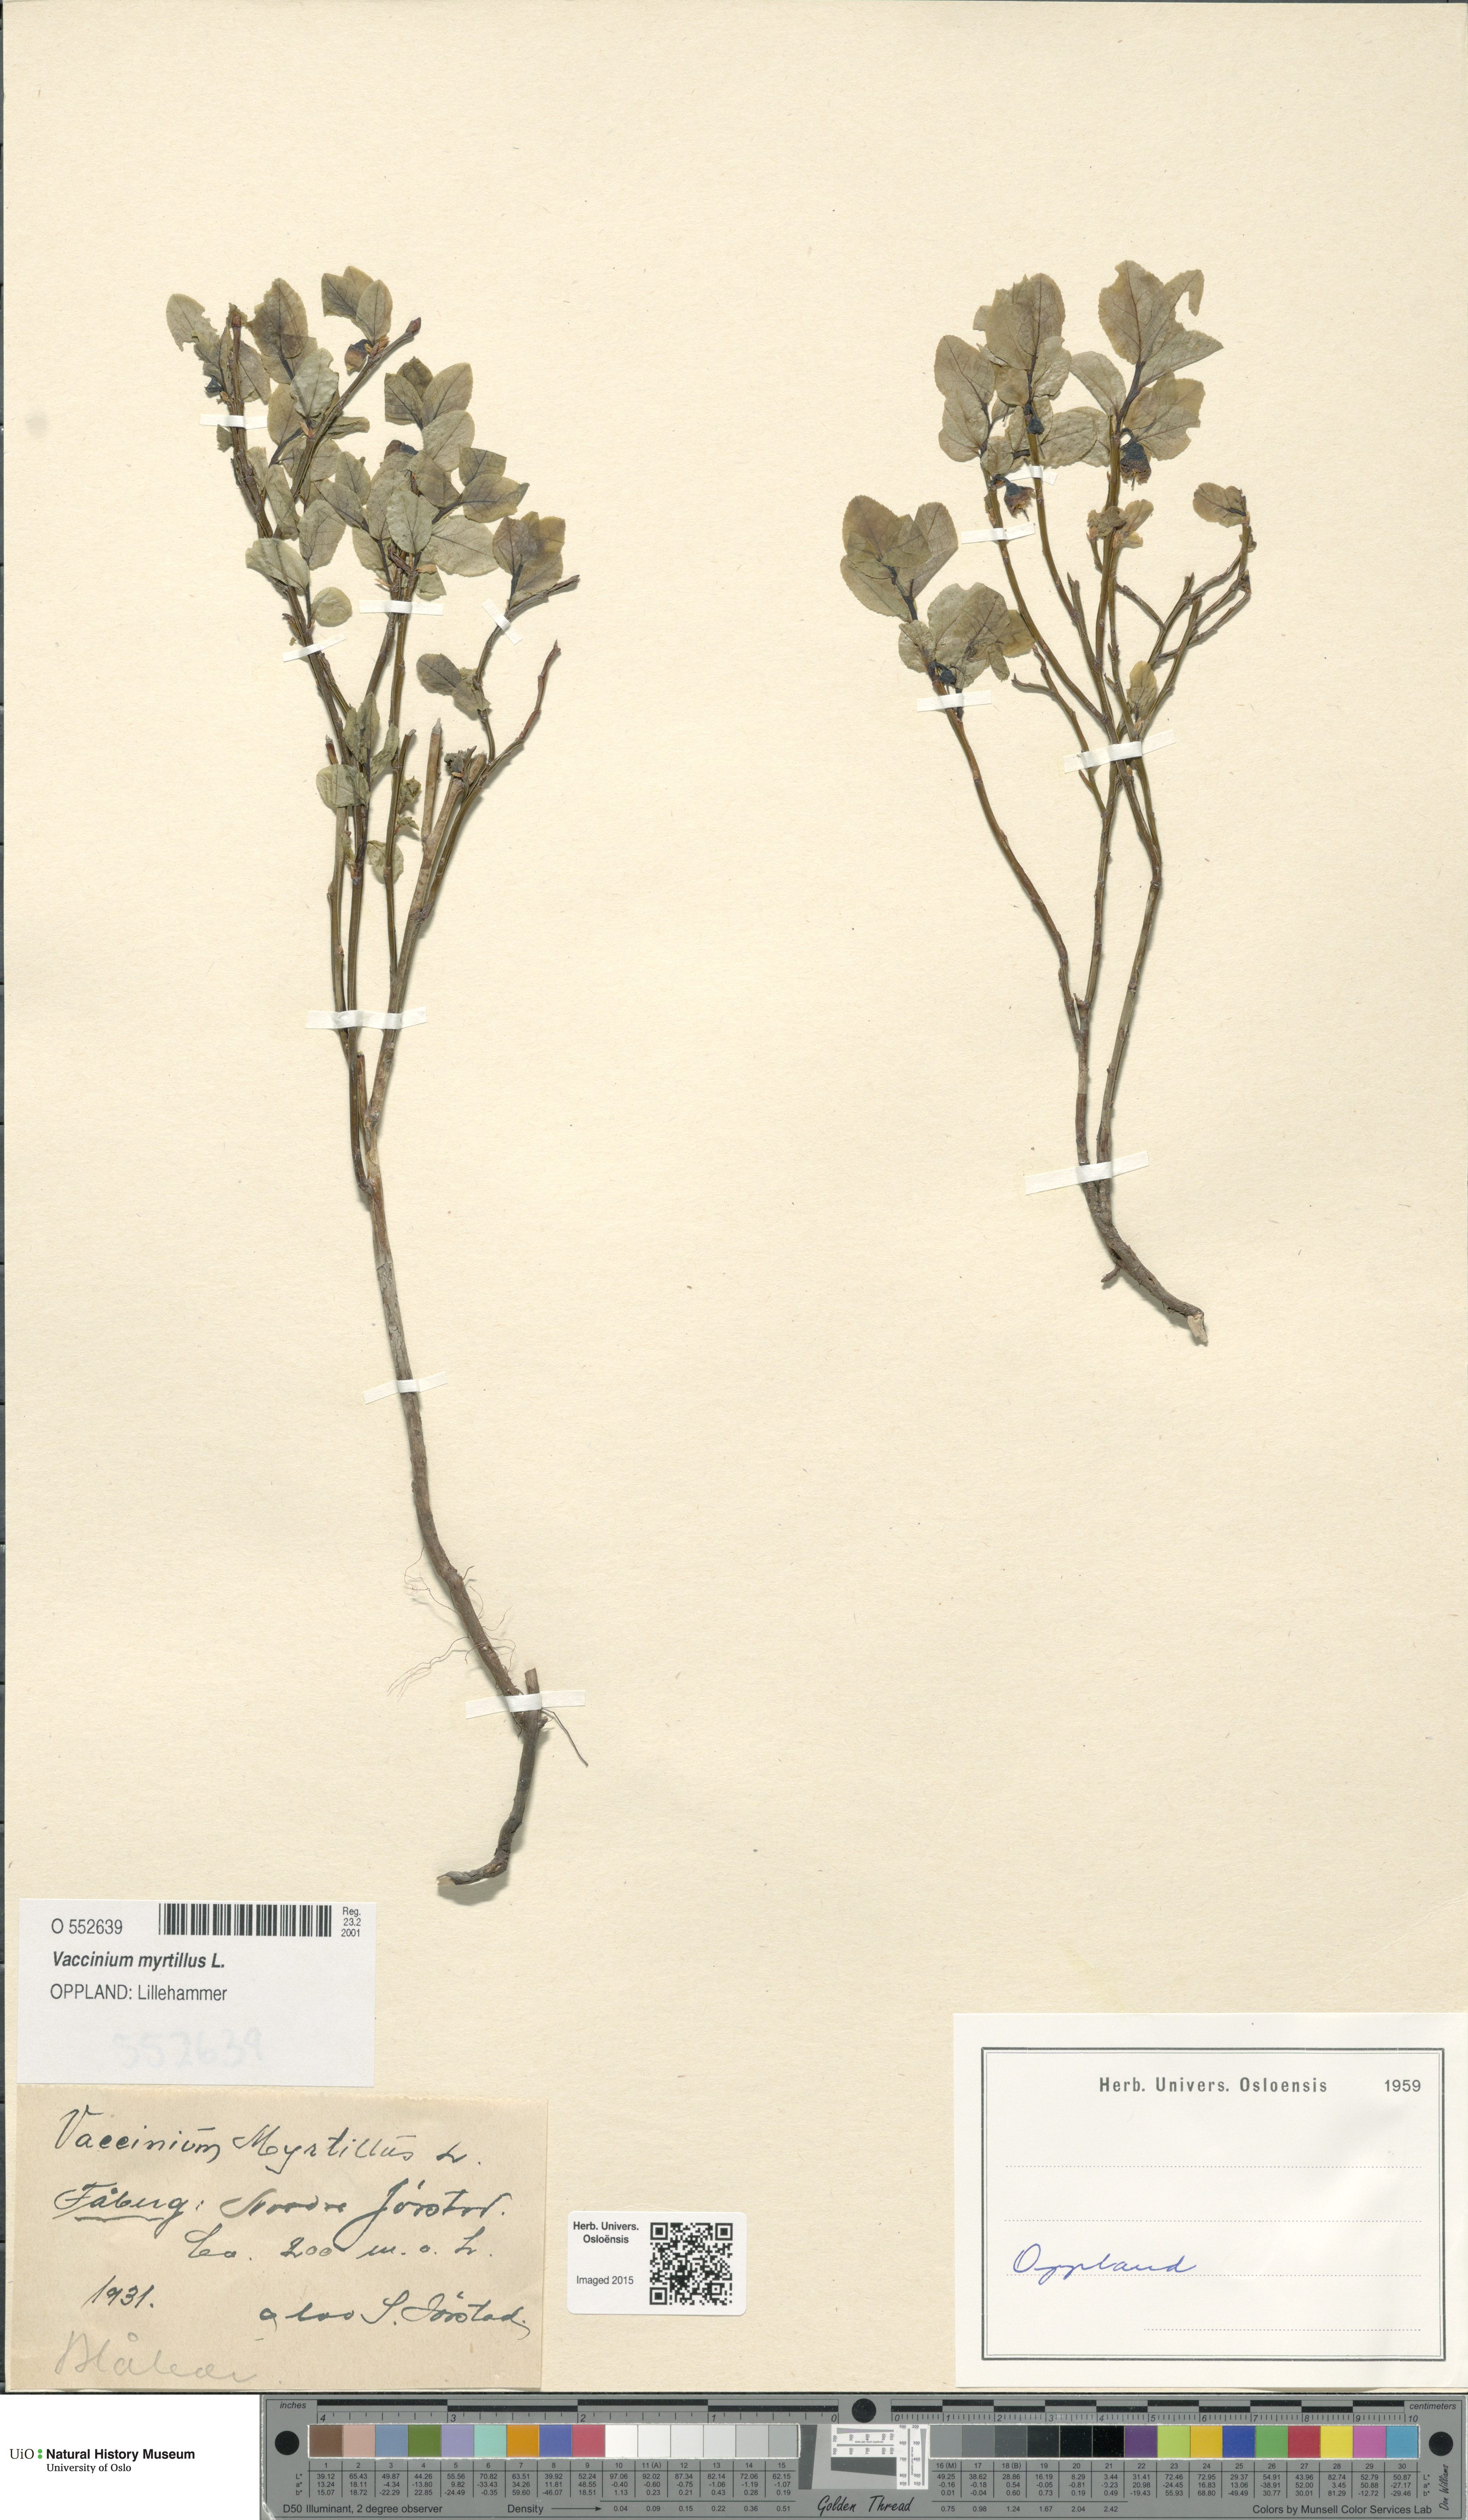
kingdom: Plantae
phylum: Tracheophyta
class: Magnoliopsida
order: Ericales
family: Ericaceae
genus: Vaccinium
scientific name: Vaccinium myrtillus
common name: Bilberry
